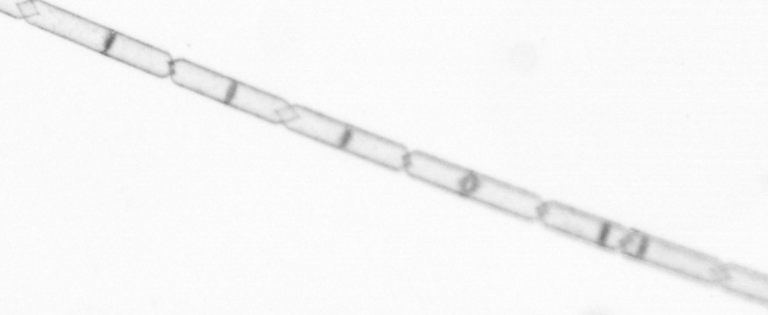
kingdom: Chromista
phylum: Ochrophyta
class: Bacillariophyceae
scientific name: Bacillariophyceae
